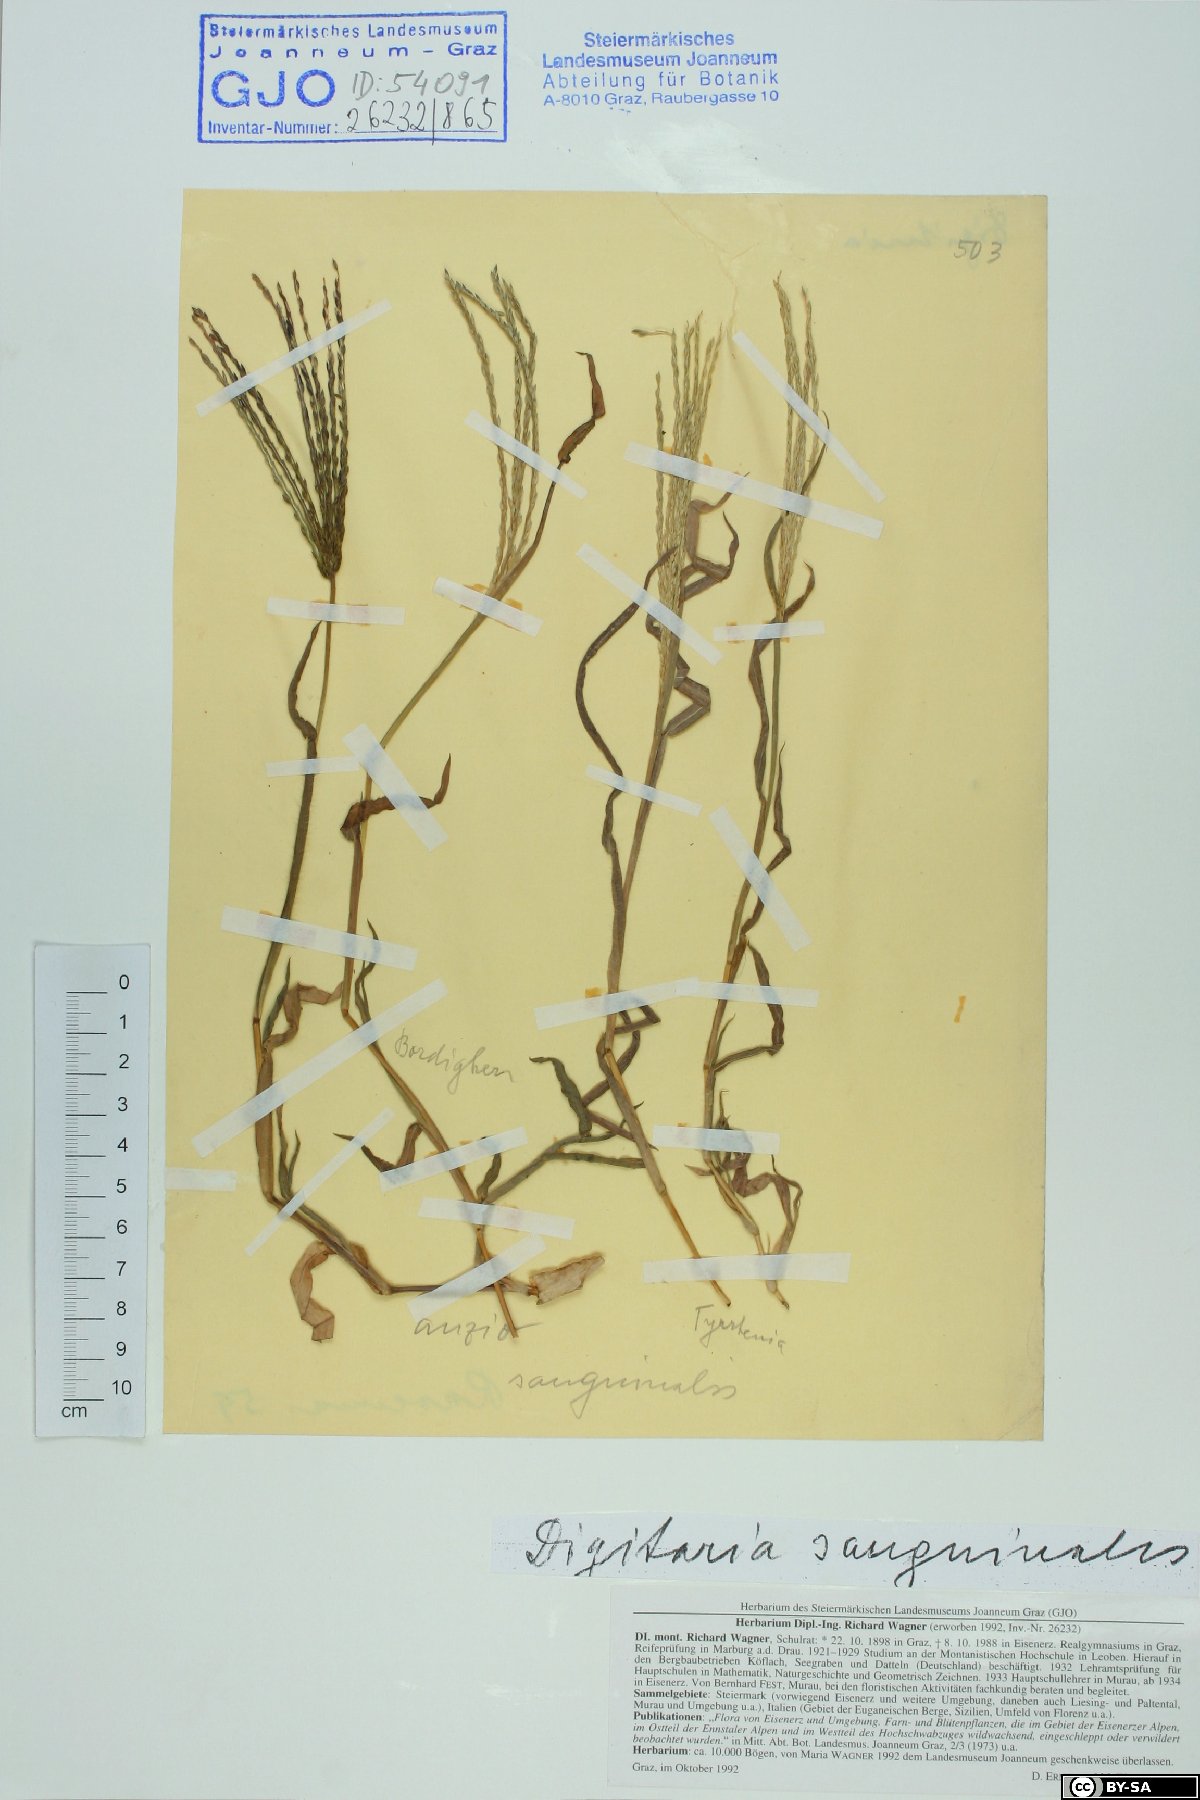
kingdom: Plantae
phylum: Tracheophyta
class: Liliopsida
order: Poales
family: Poaceae
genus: Digitaria
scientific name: Digitaria sanguinalis
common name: Hairy crabgrass
